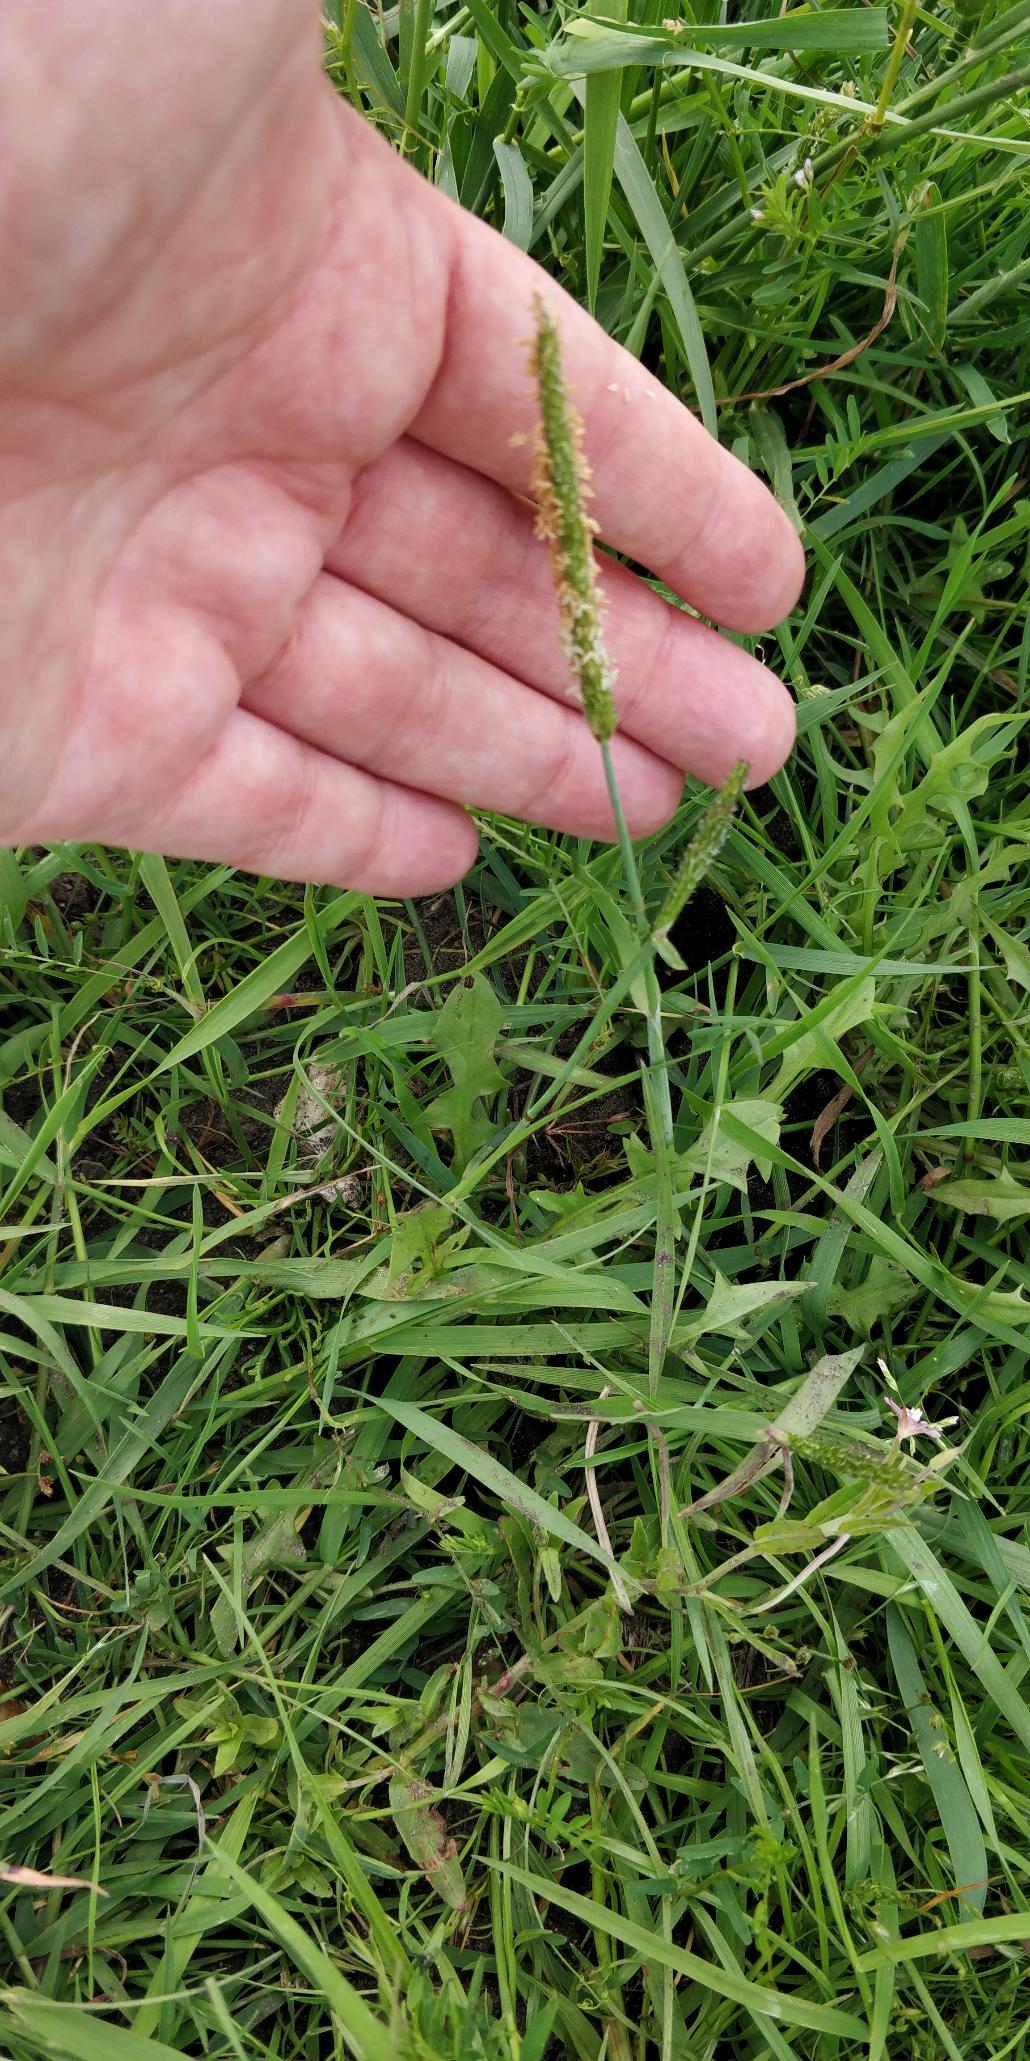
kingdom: Plantae
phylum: Tracheophyta
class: Liliopsida
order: Poales
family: Poaceae
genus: Alopecurus
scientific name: Alopecurus aequalis
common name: Gul rævehale
